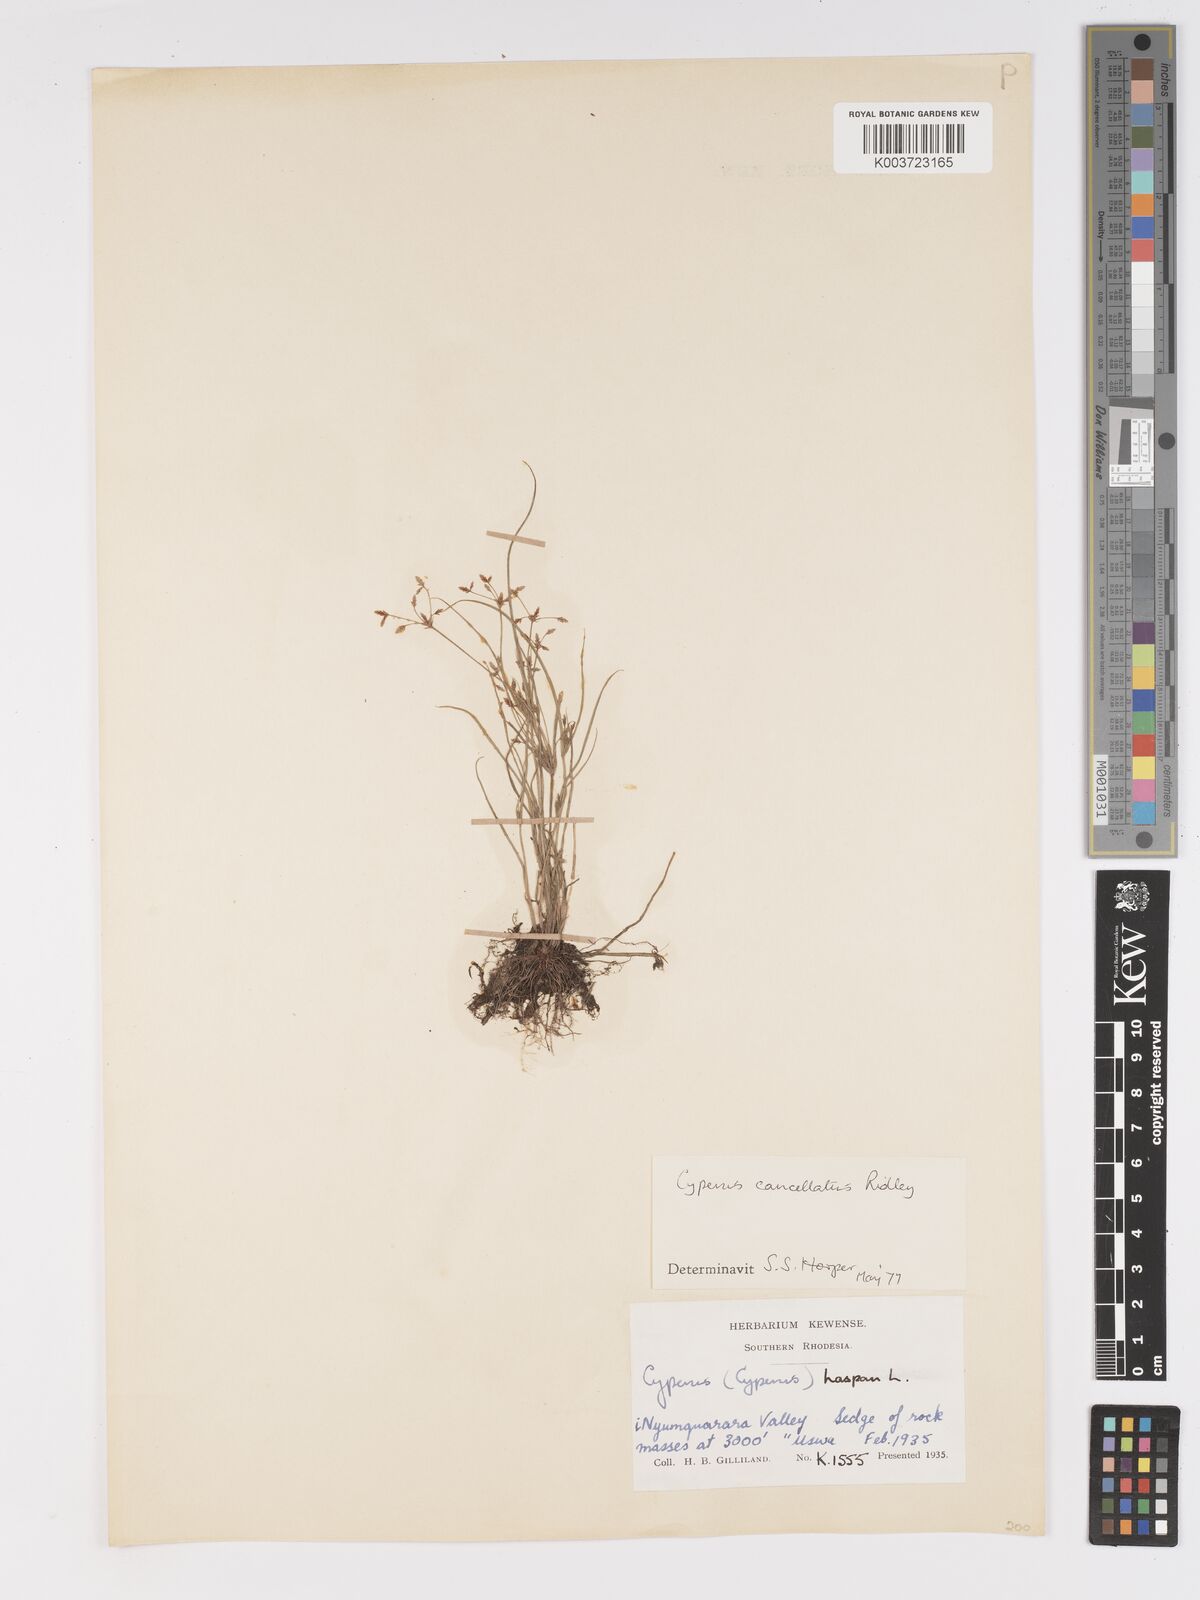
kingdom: Plantae
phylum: Tracheophyta
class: Liliopsida
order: Poales
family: Cyperaceae
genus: Cyperus
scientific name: Cyperus cancellatus
